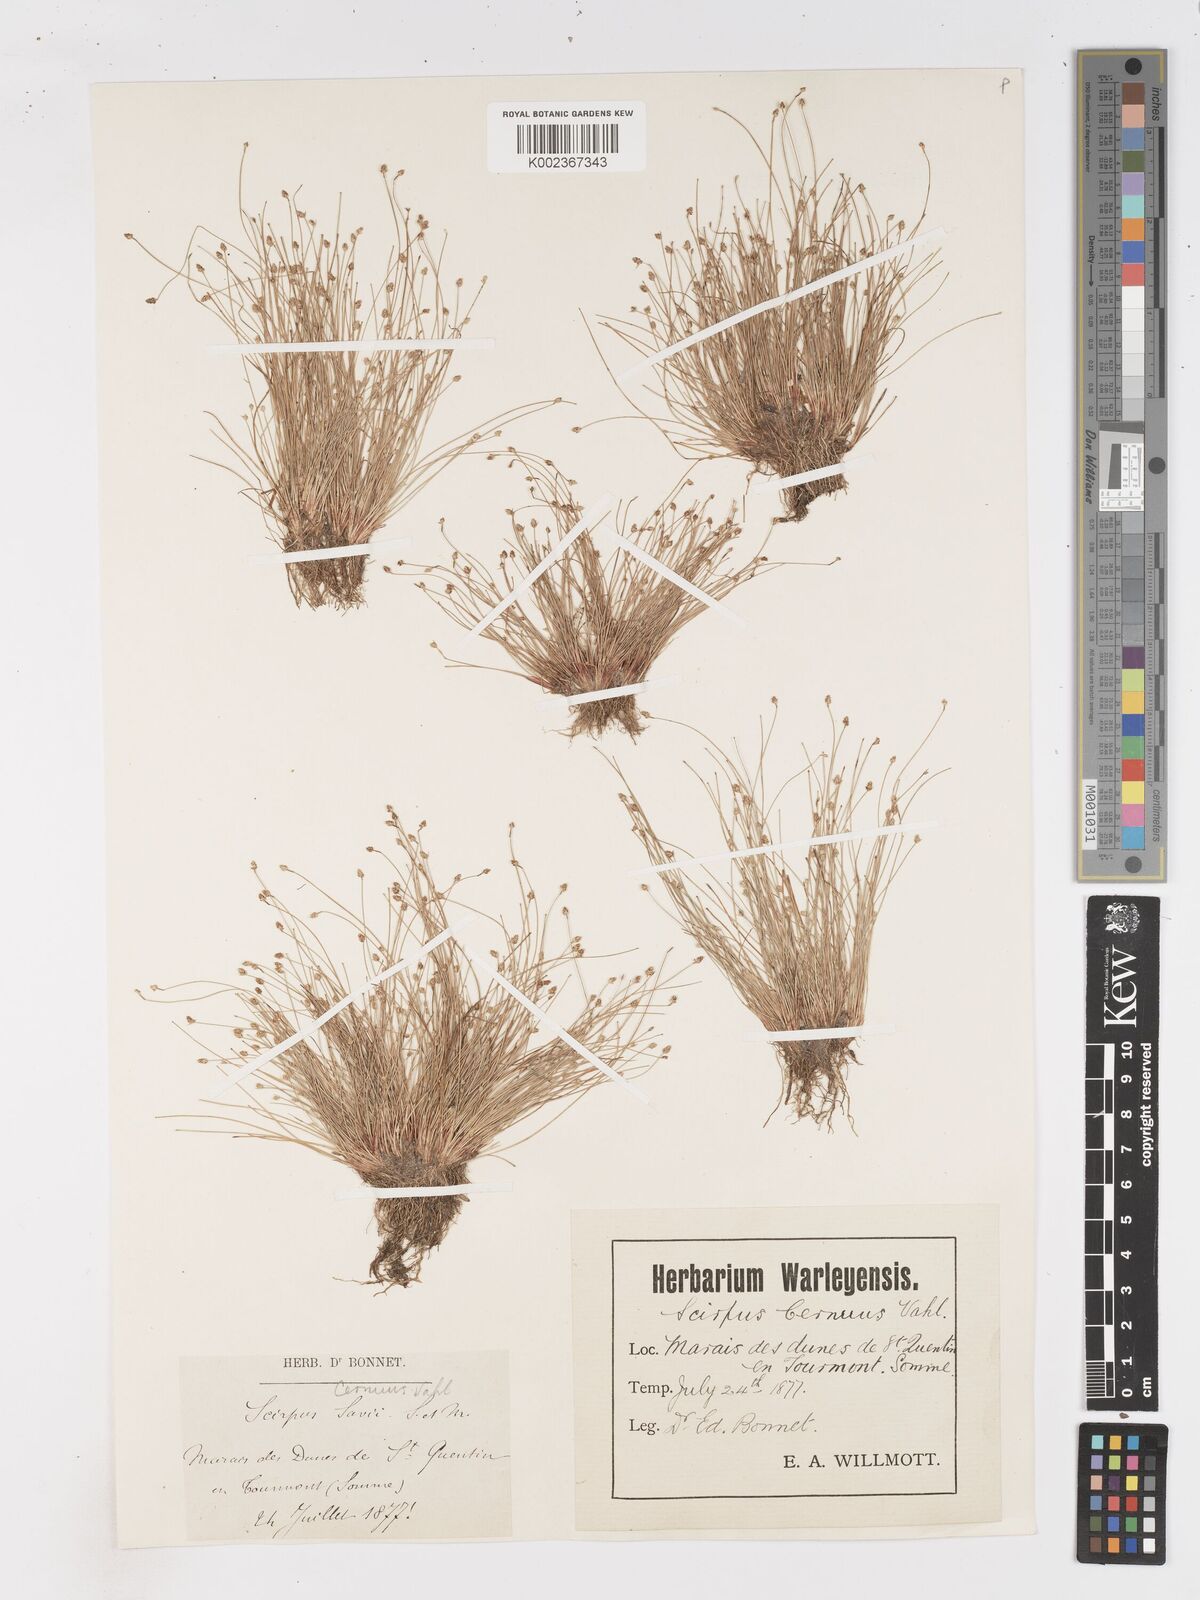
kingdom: Plantae
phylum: Tracheophyta
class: Liliopsida
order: Poales
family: Cyperaceae
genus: Isolepis
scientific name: Isolepis cernua
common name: Slender club-rush
